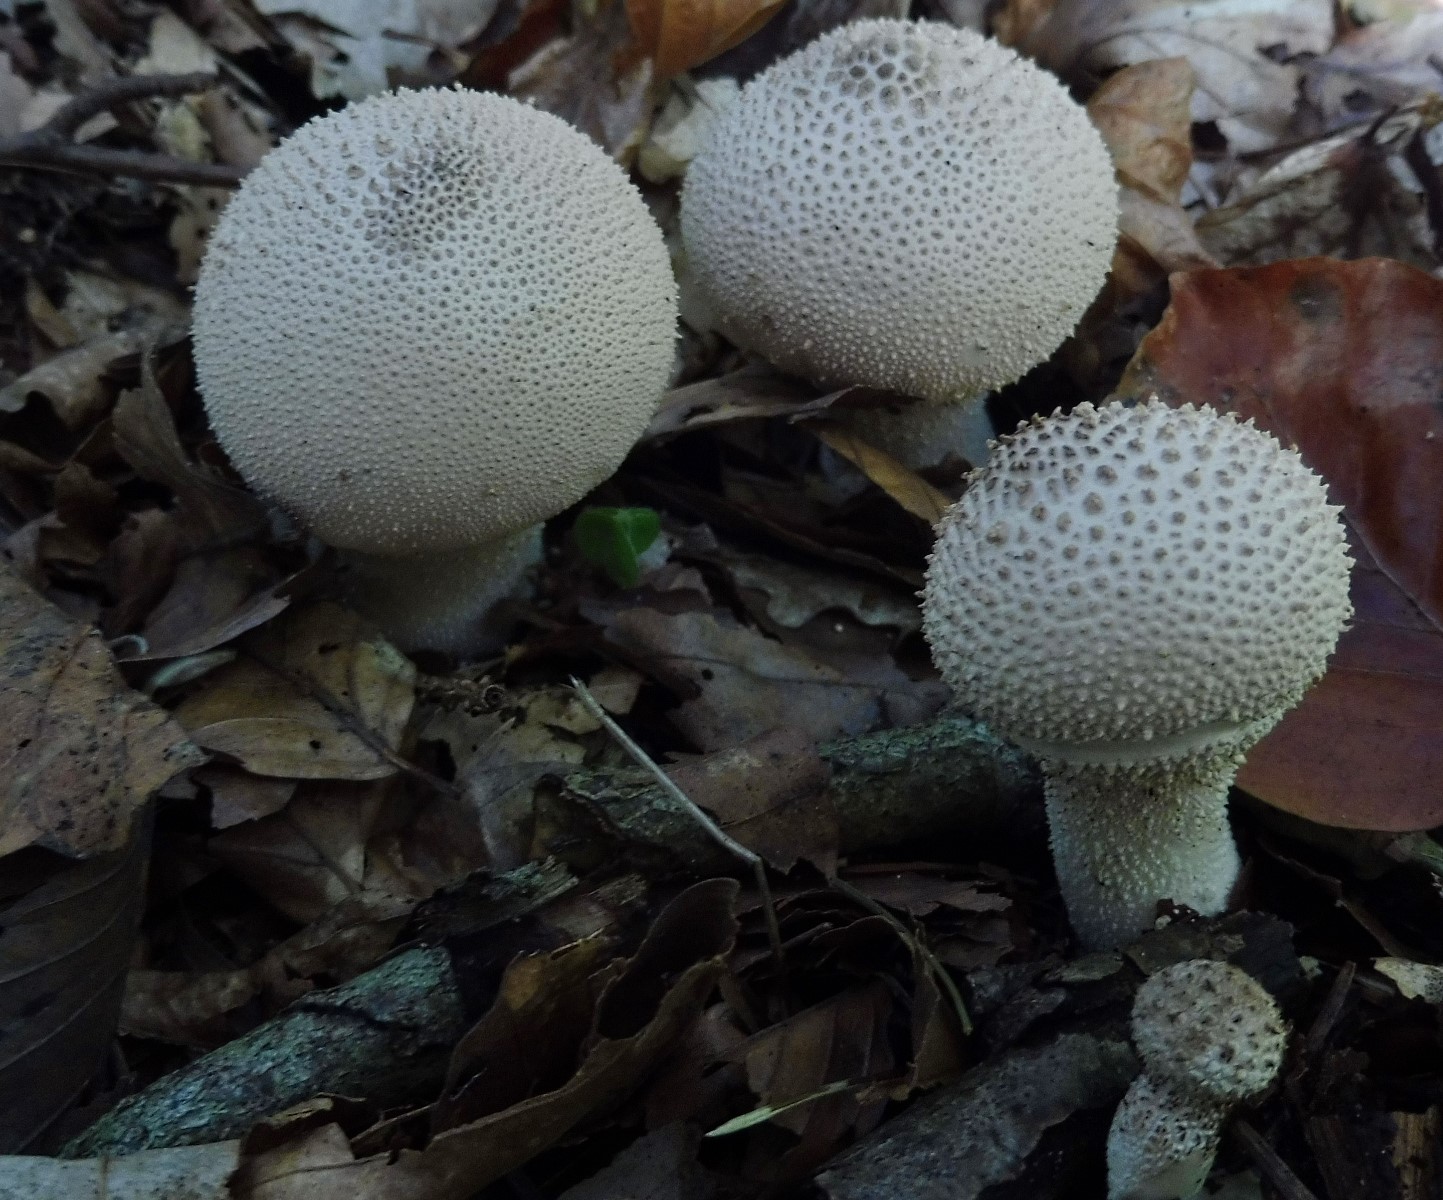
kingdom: Fungi
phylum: Basidiomycota
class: Agaricomycetes
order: Agaricales
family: Lycoperdaceae
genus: Lycoperdon
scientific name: Lycoperdon perlatum
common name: krystal-støvbold
